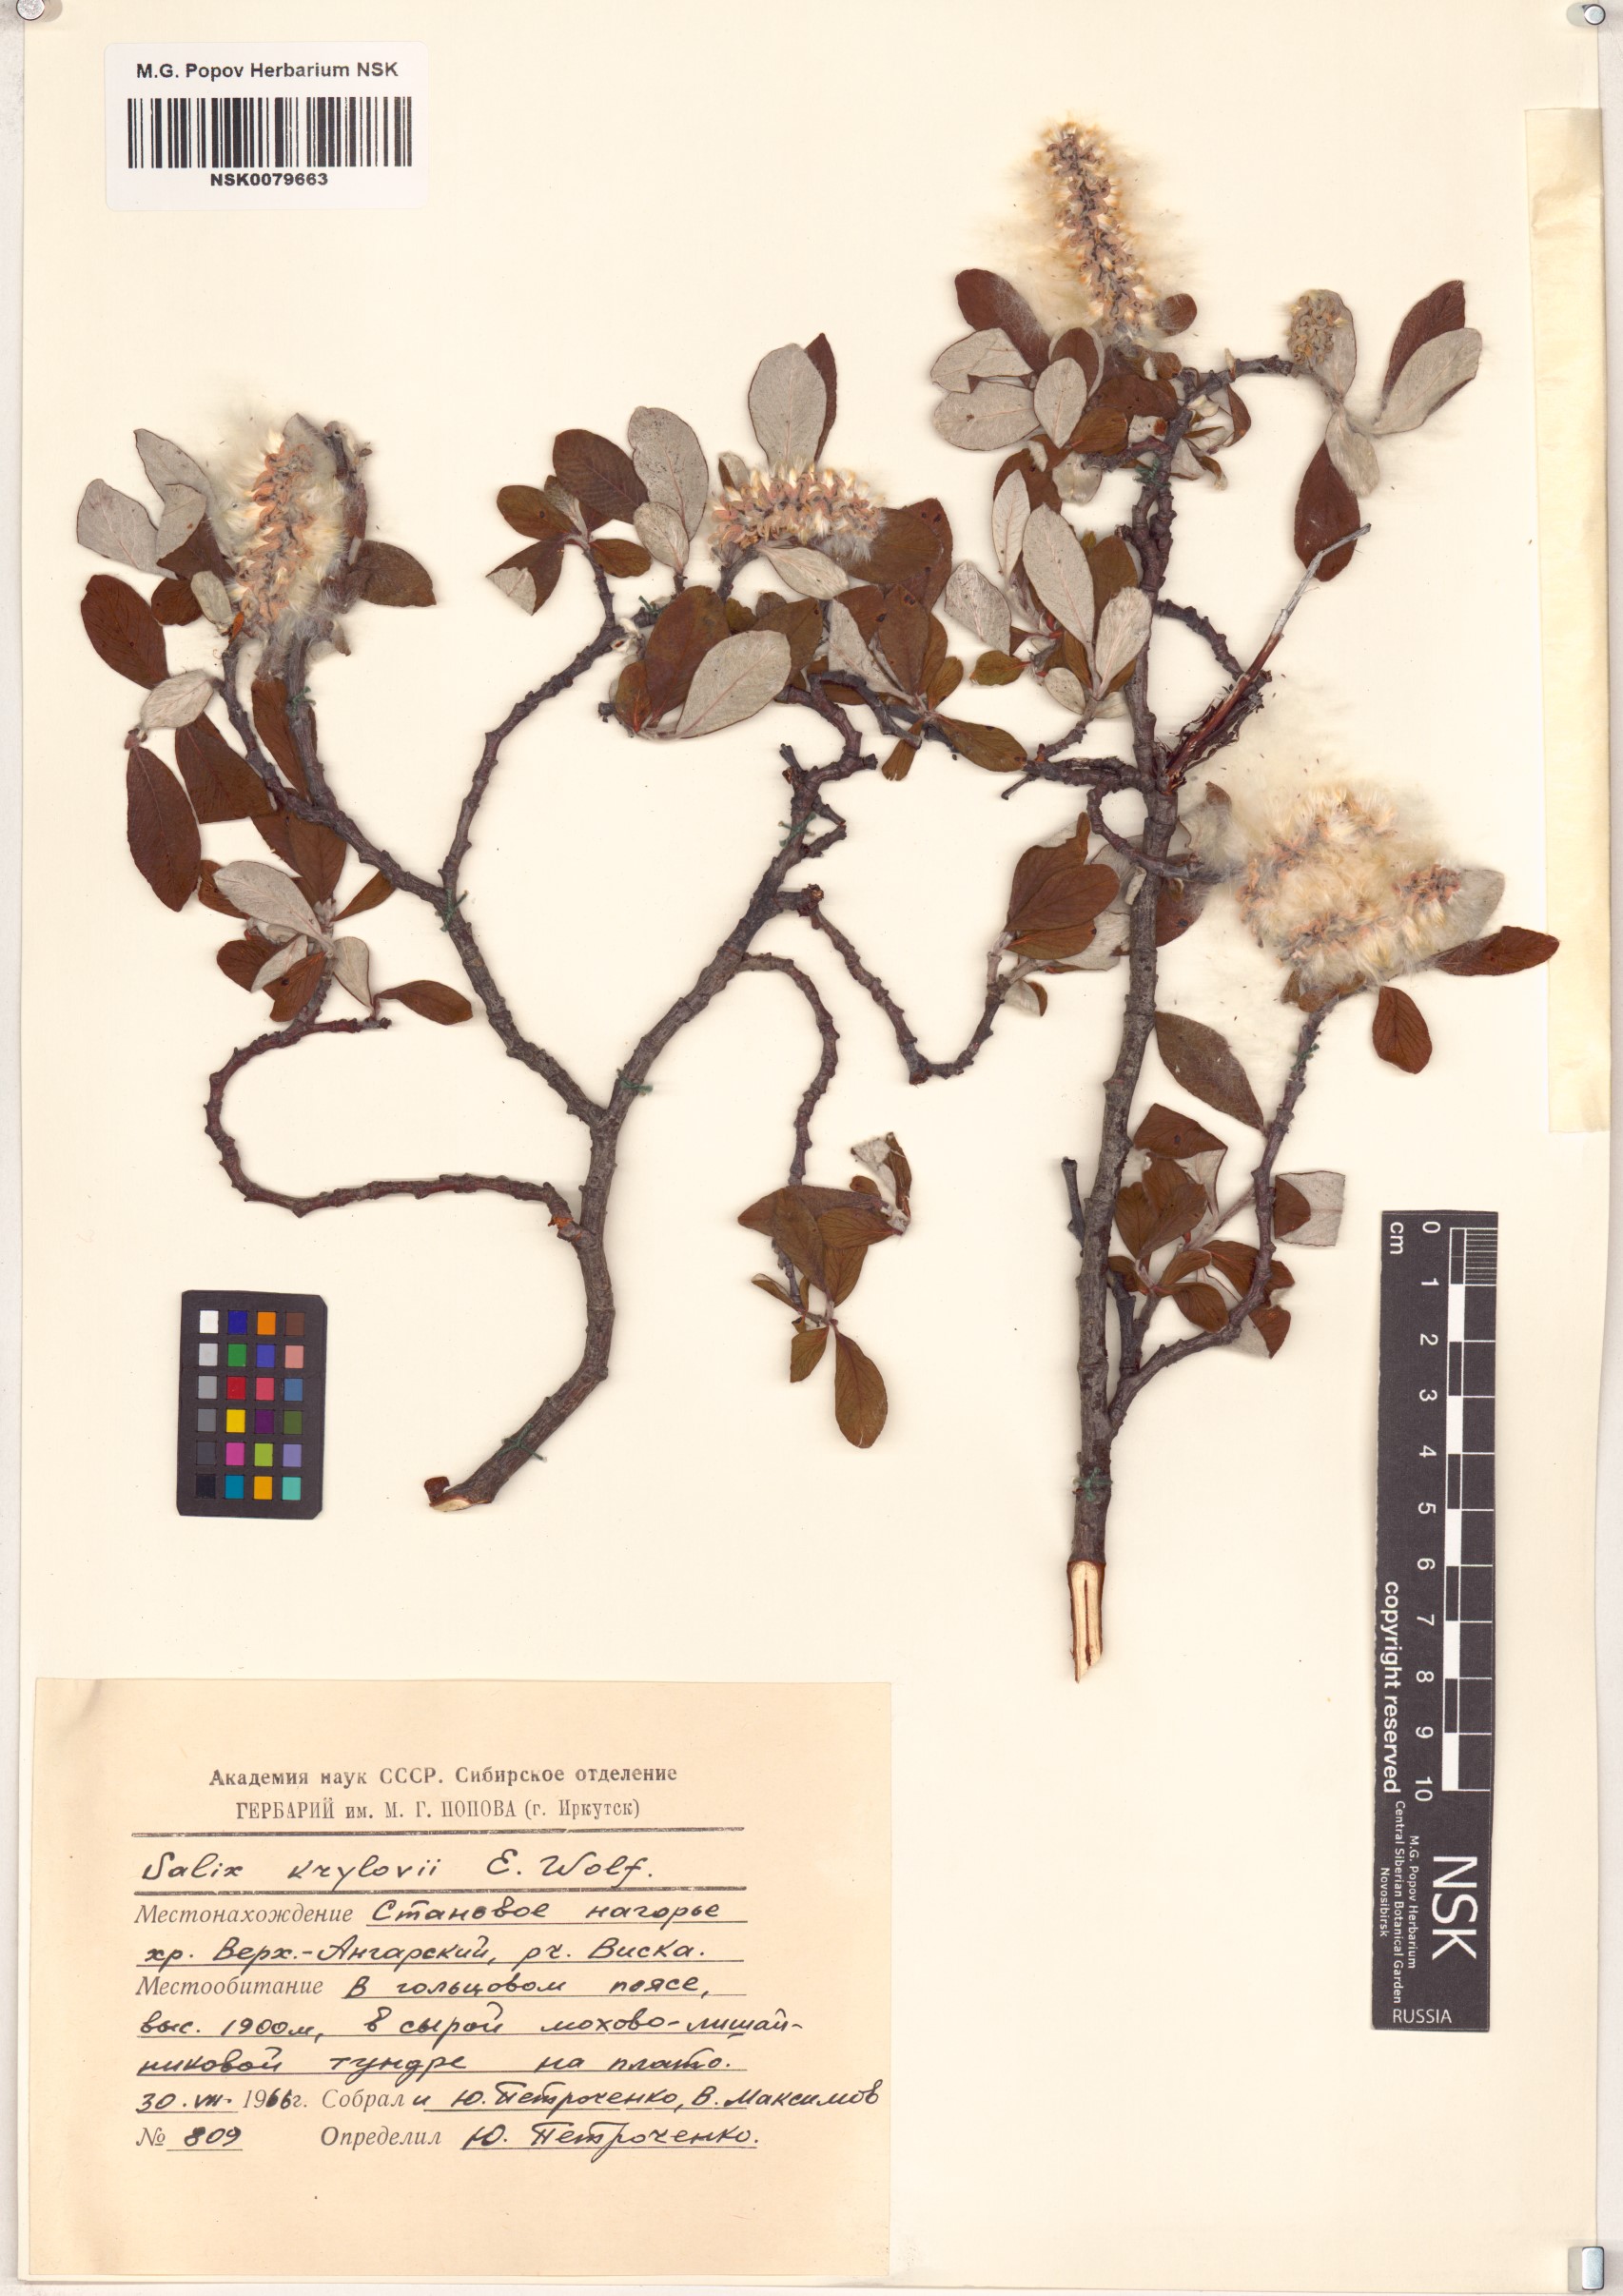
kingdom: Plantae
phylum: Tracheophyta
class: Magnoliopsida
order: Malpighiales
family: Salicaceae
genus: Salix
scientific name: Salix krylovii
